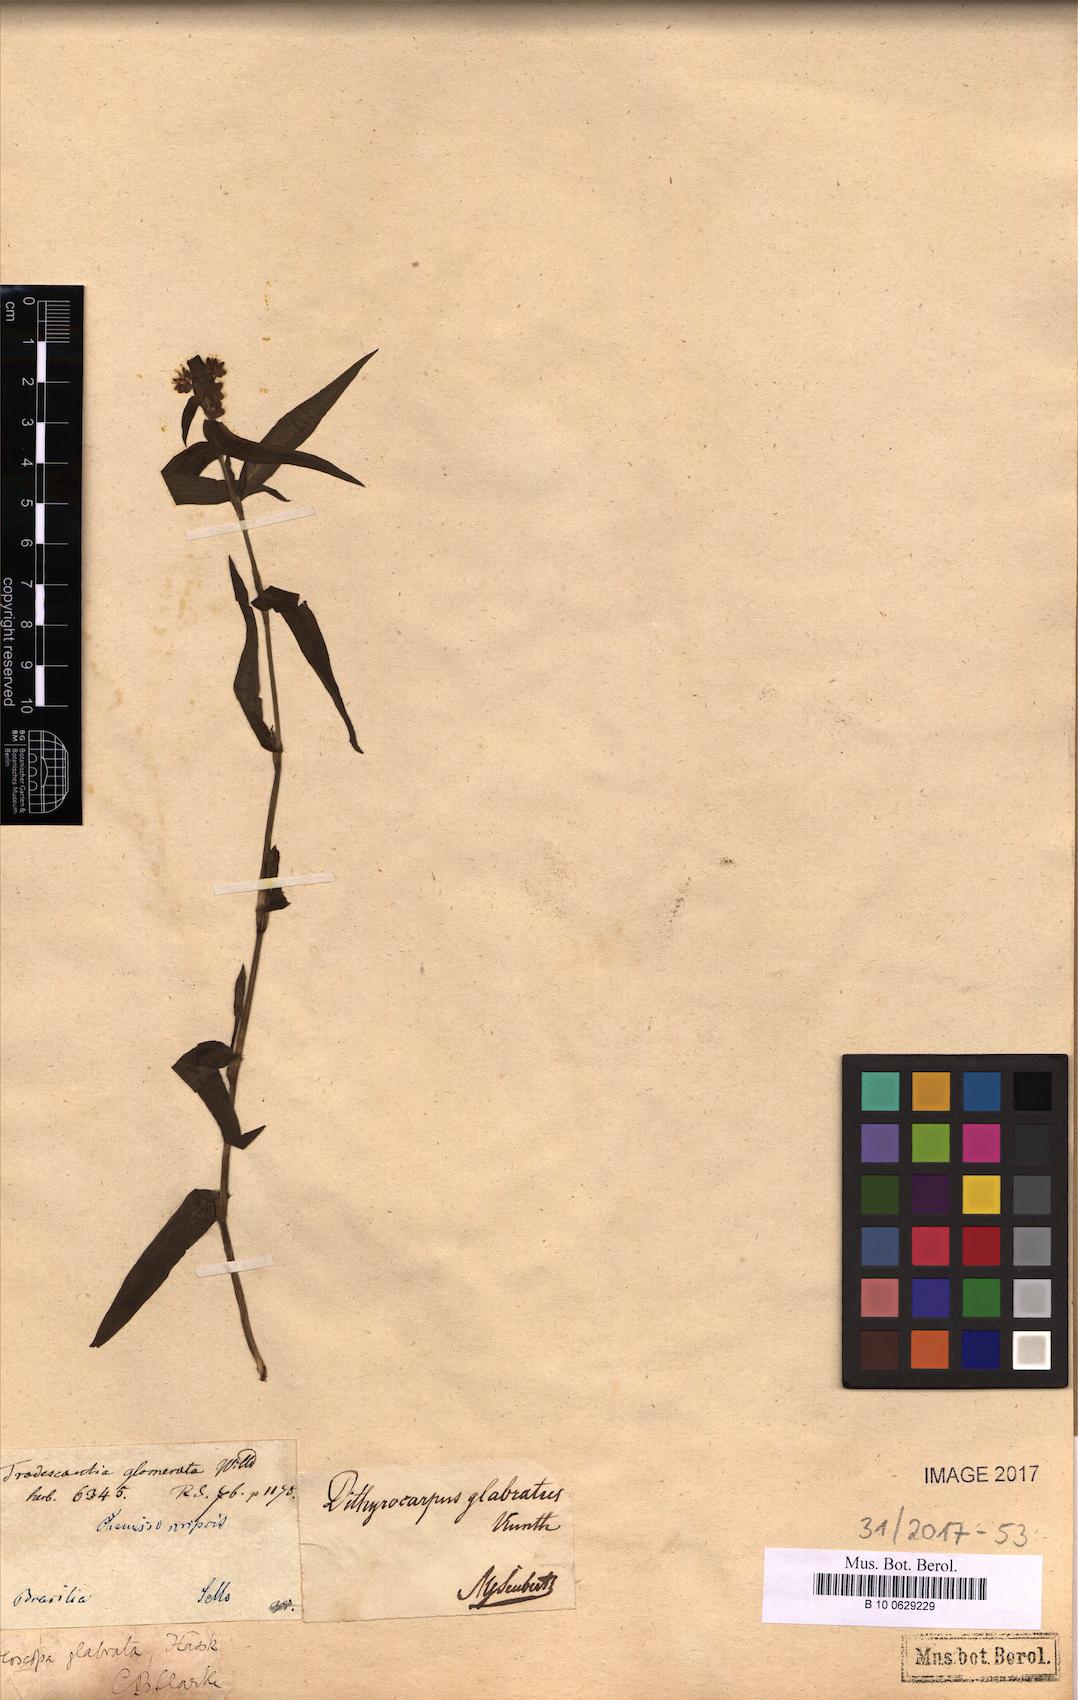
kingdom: Plantae
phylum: Tracheophyta
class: Liliopsida
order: Commelinales
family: Commelinaceae
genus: Floscopa
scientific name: Floscopa glabrata
